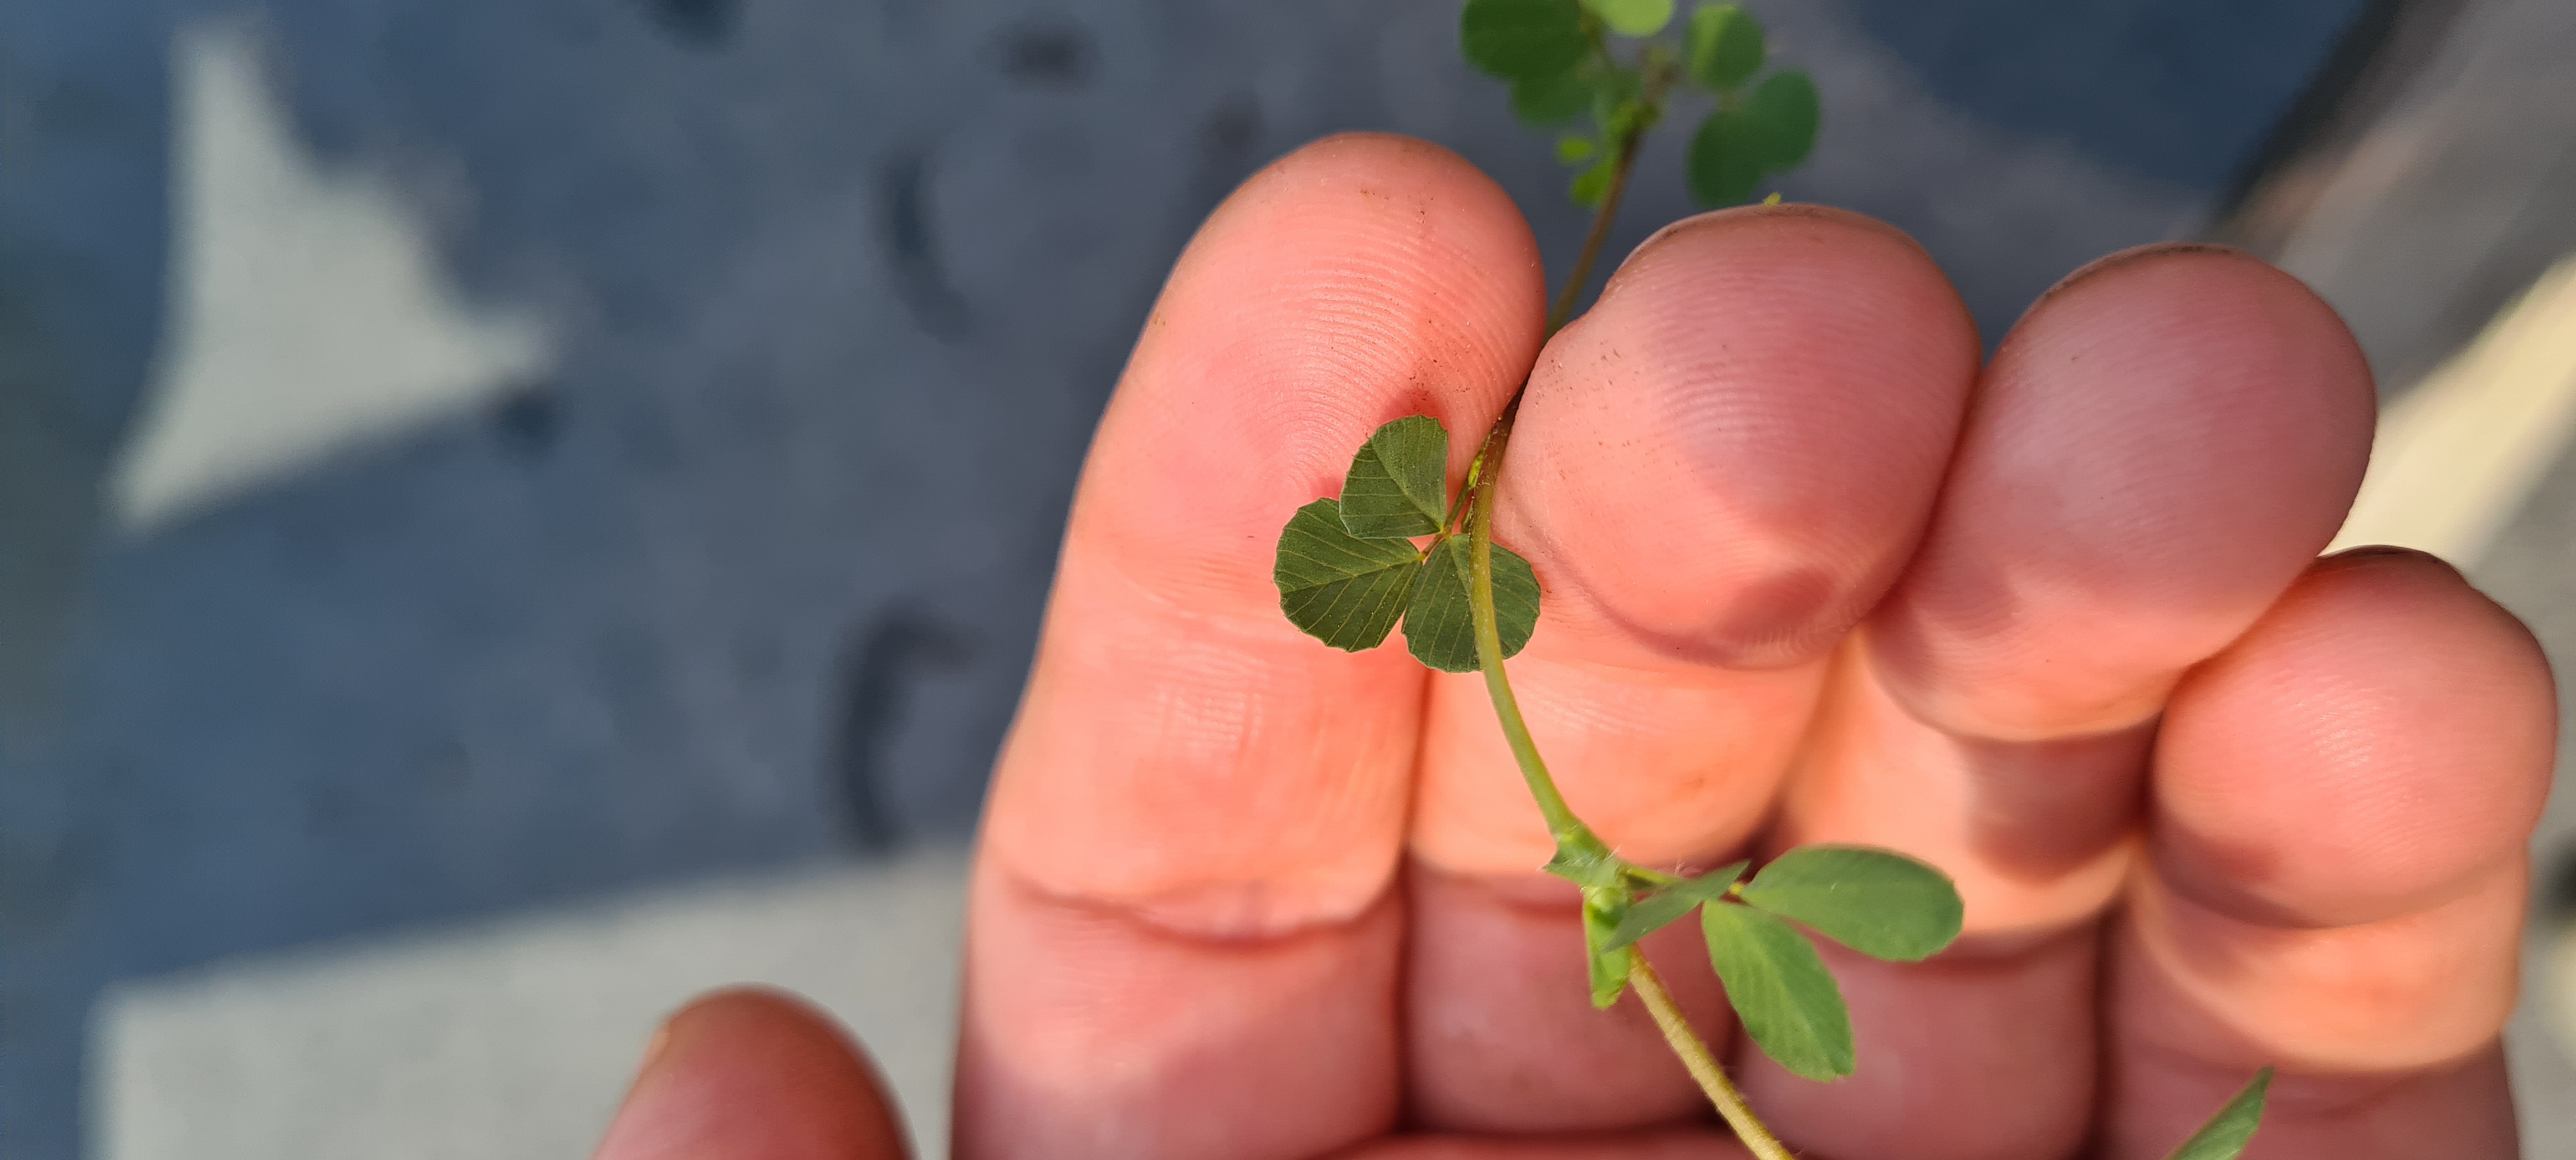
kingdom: Plantae
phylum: Tracheophyta
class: Magnoliopsida
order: Fabales
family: Fabaceae
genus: Trifolium
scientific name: Trifolium dubium
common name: Fin kløver
